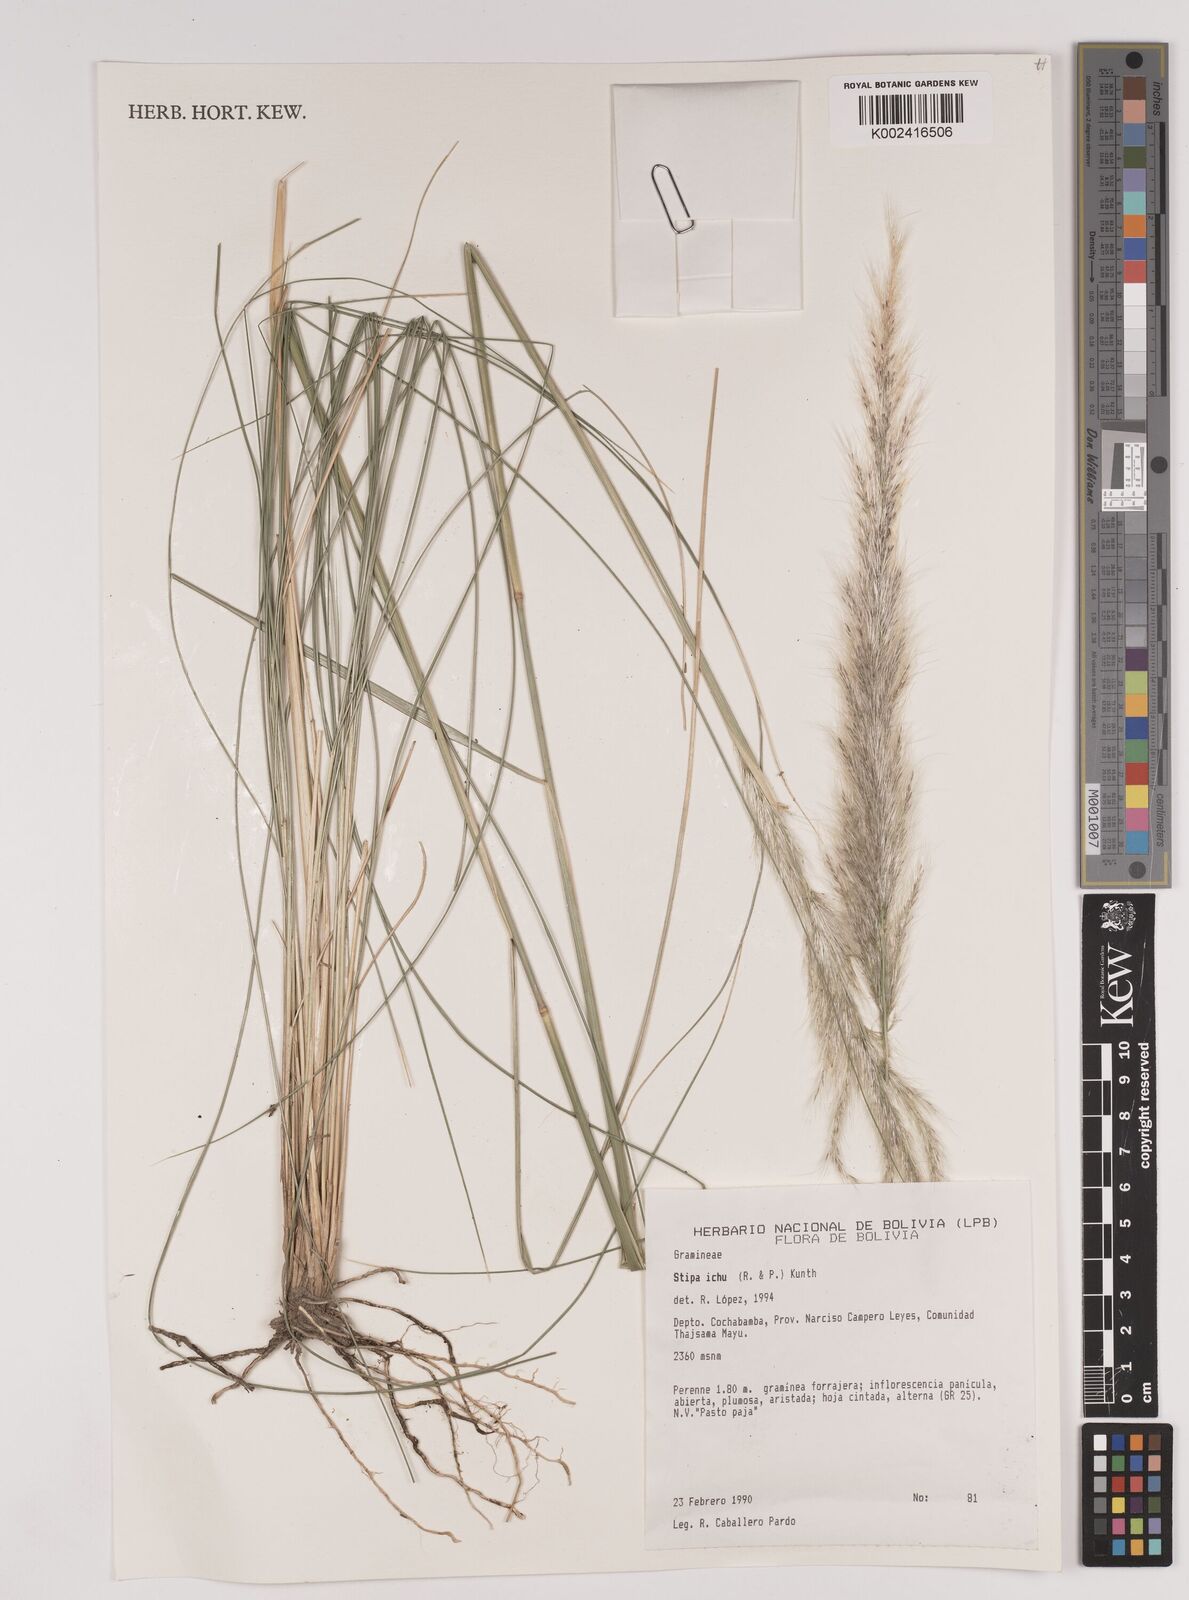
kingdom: Plantae
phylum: Tracheophyta
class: Liliopsida
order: Poales
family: Poaceae
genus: Jarava
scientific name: Jarava ichu
